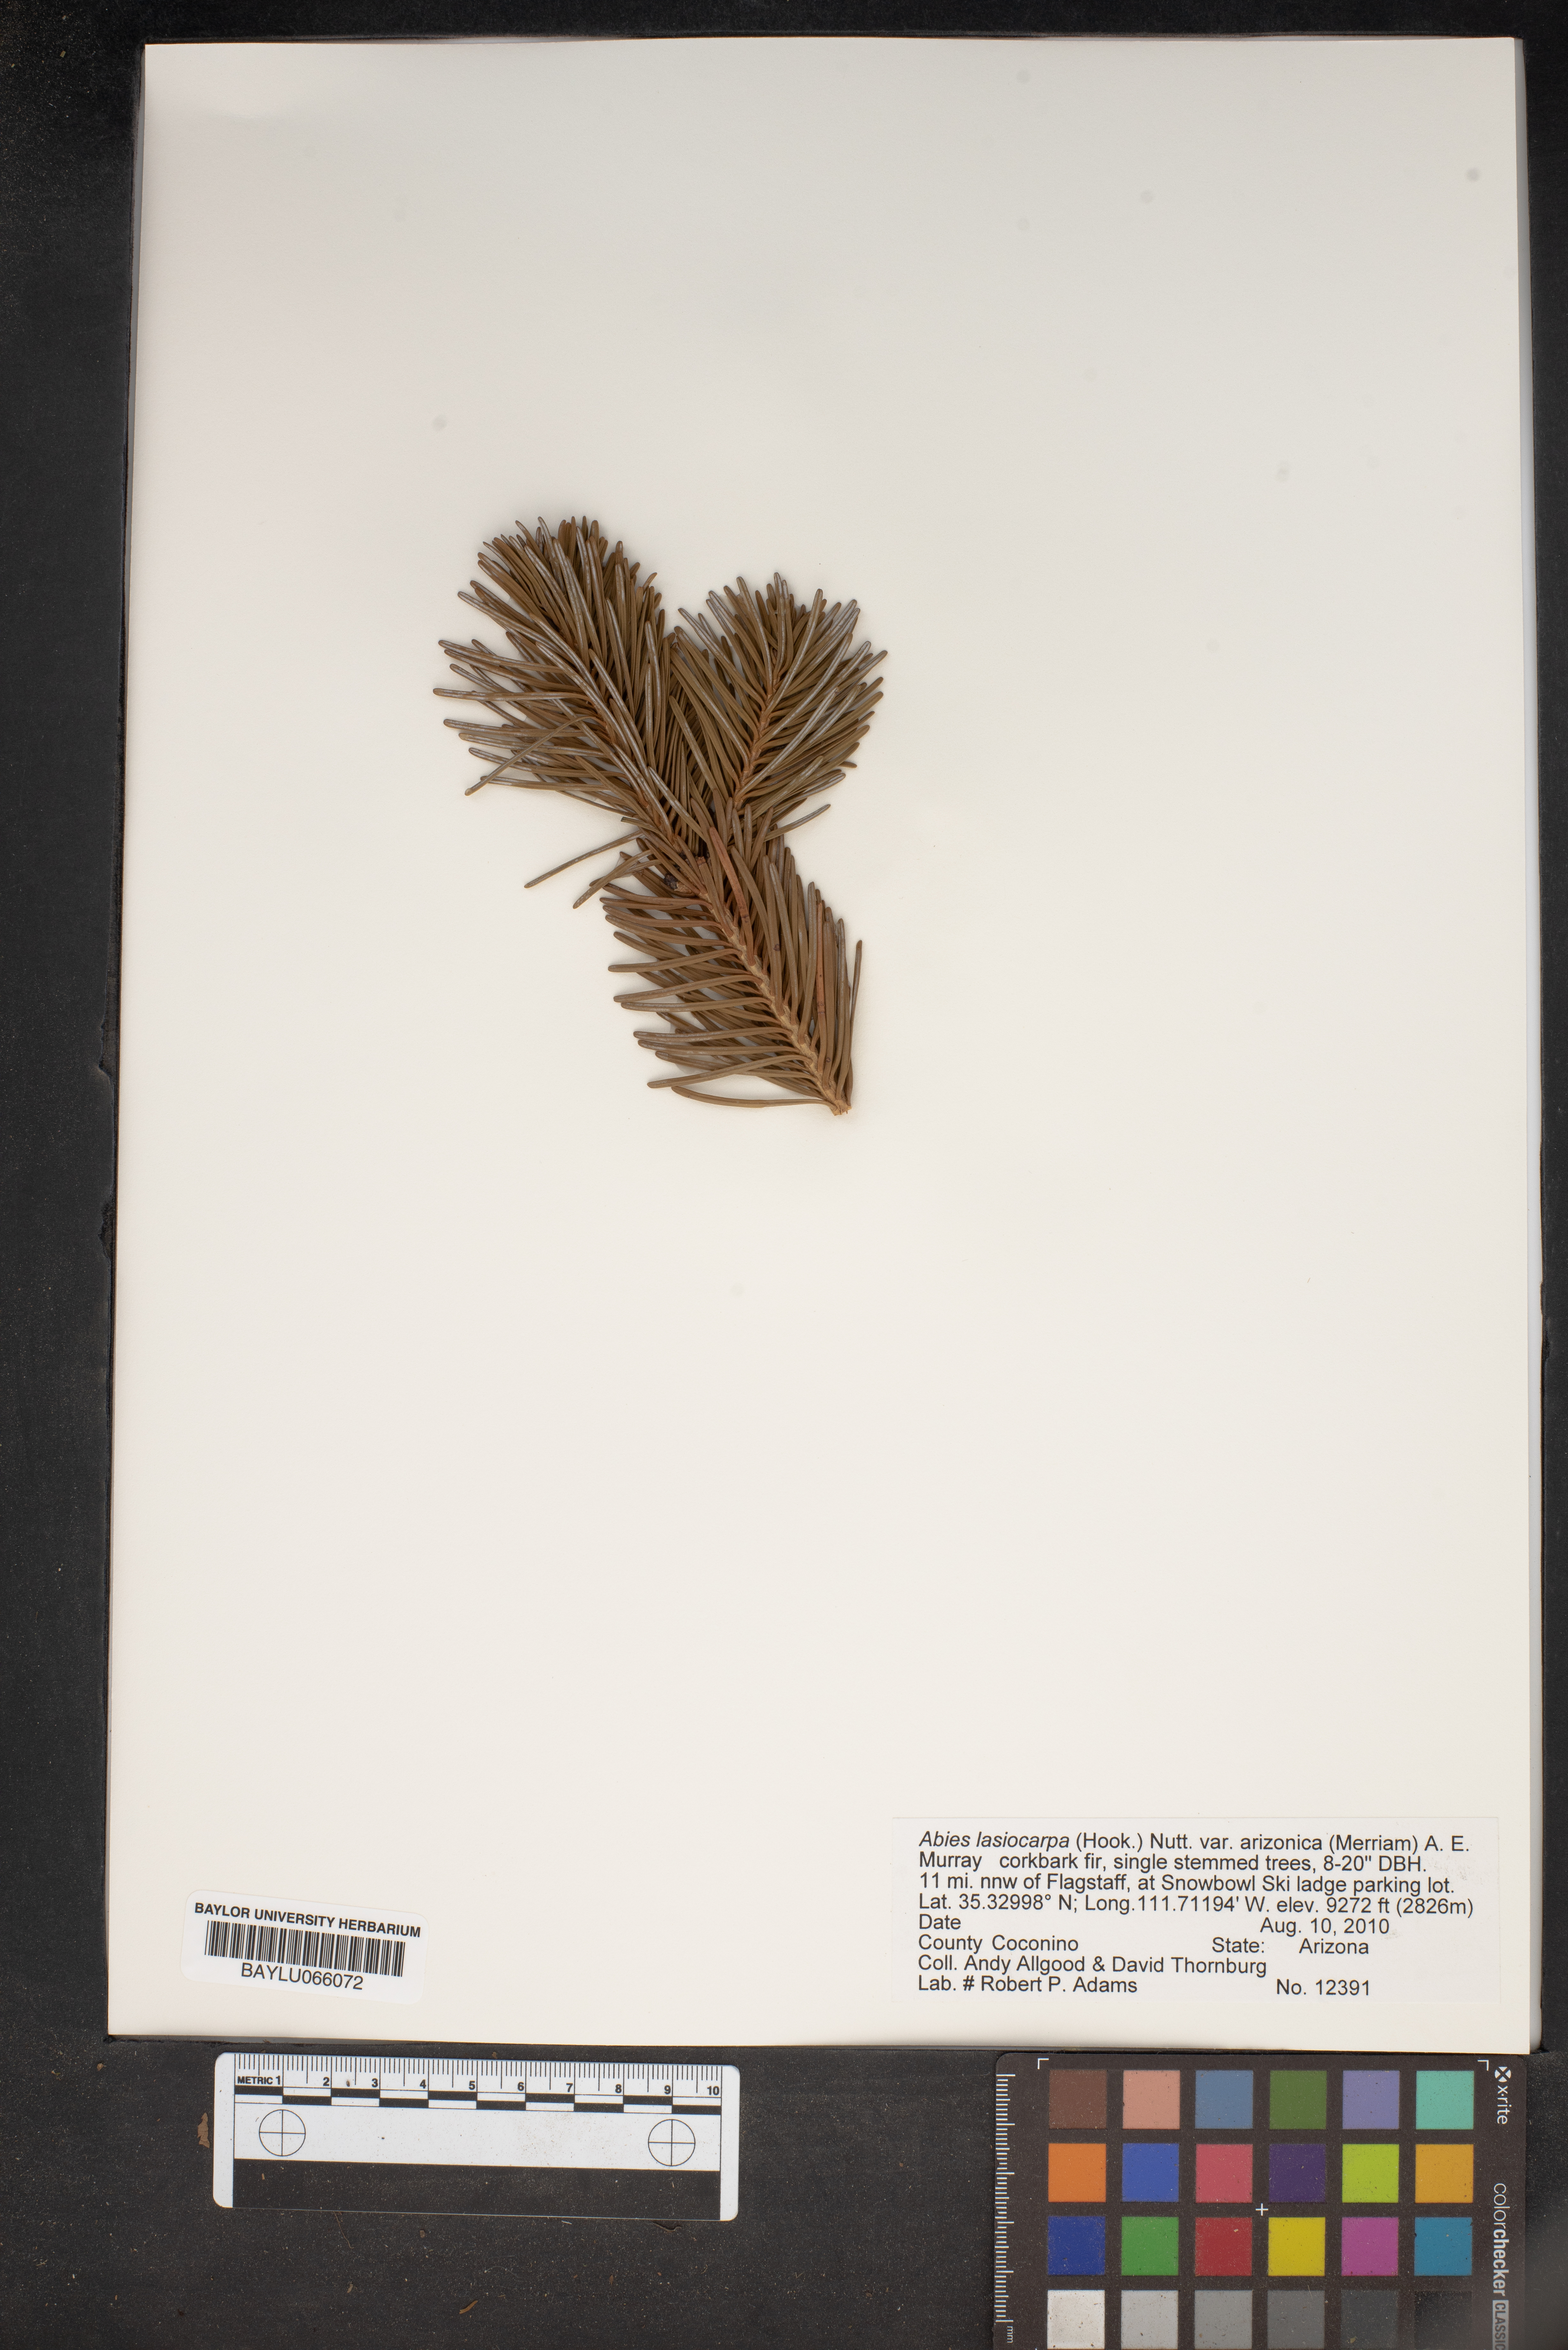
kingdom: Plantae
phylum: Tracheophyta
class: Pinopsida
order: Pinales
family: Pinaceae
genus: Abies
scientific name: Abies lasiocarpa
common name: Subalpine fir
